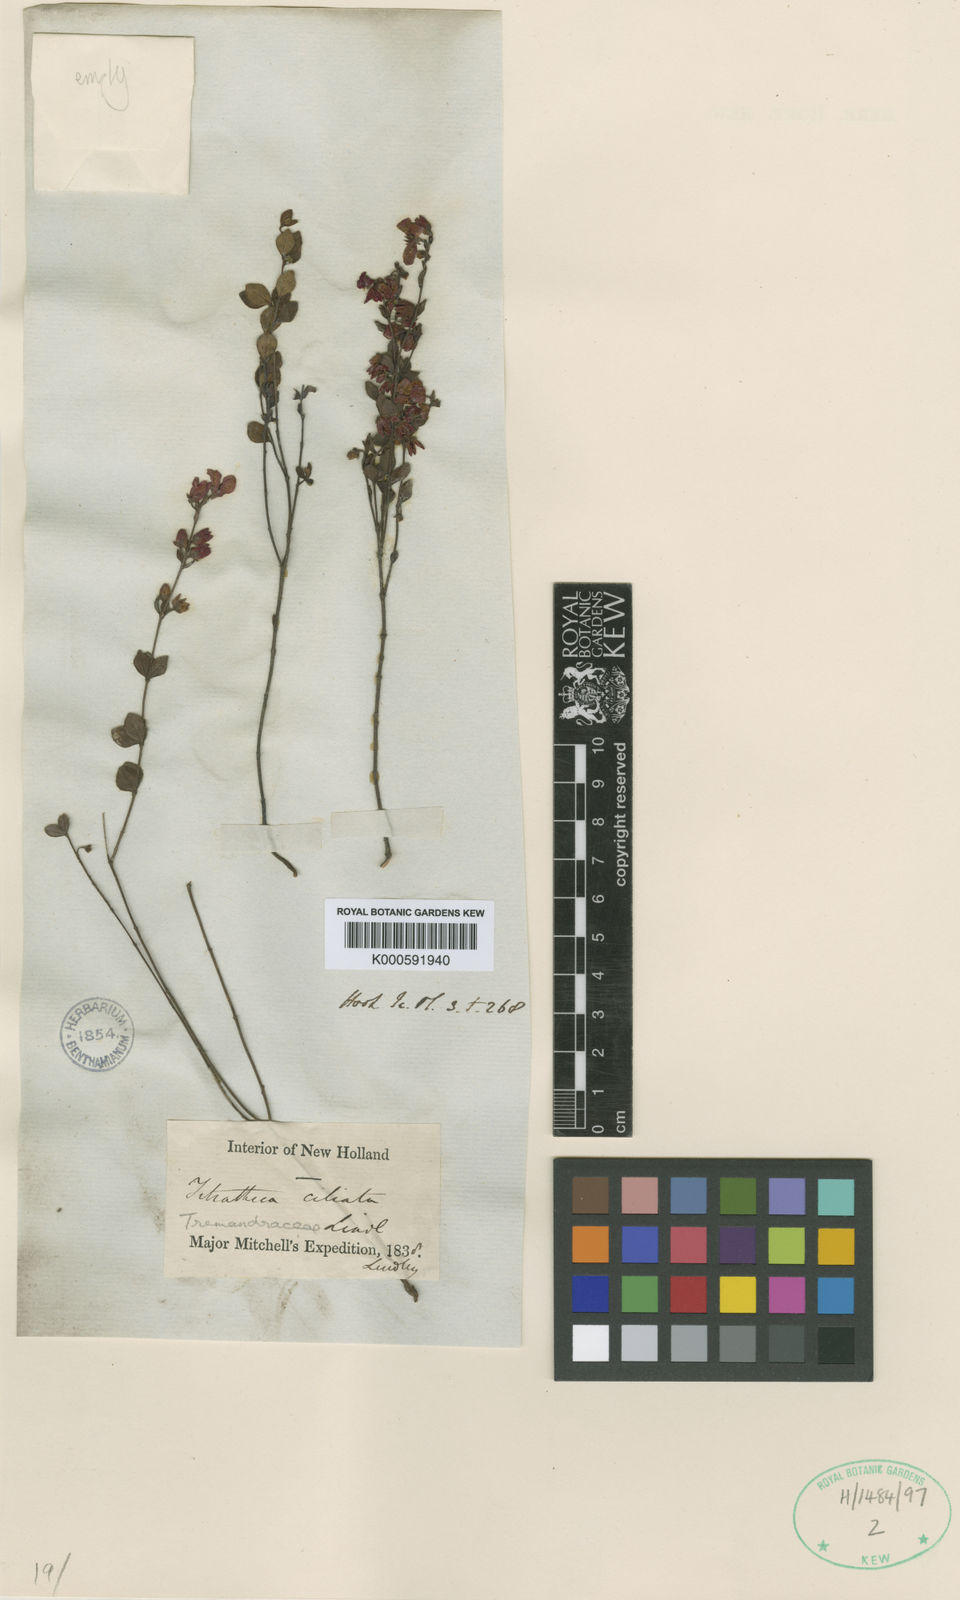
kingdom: Plantae
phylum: Tracheophyta
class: Magnoliopsida
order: Oxalidales
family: Elaeocarpaceae
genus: Tetratheca
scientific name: Tetratheca ciliata
